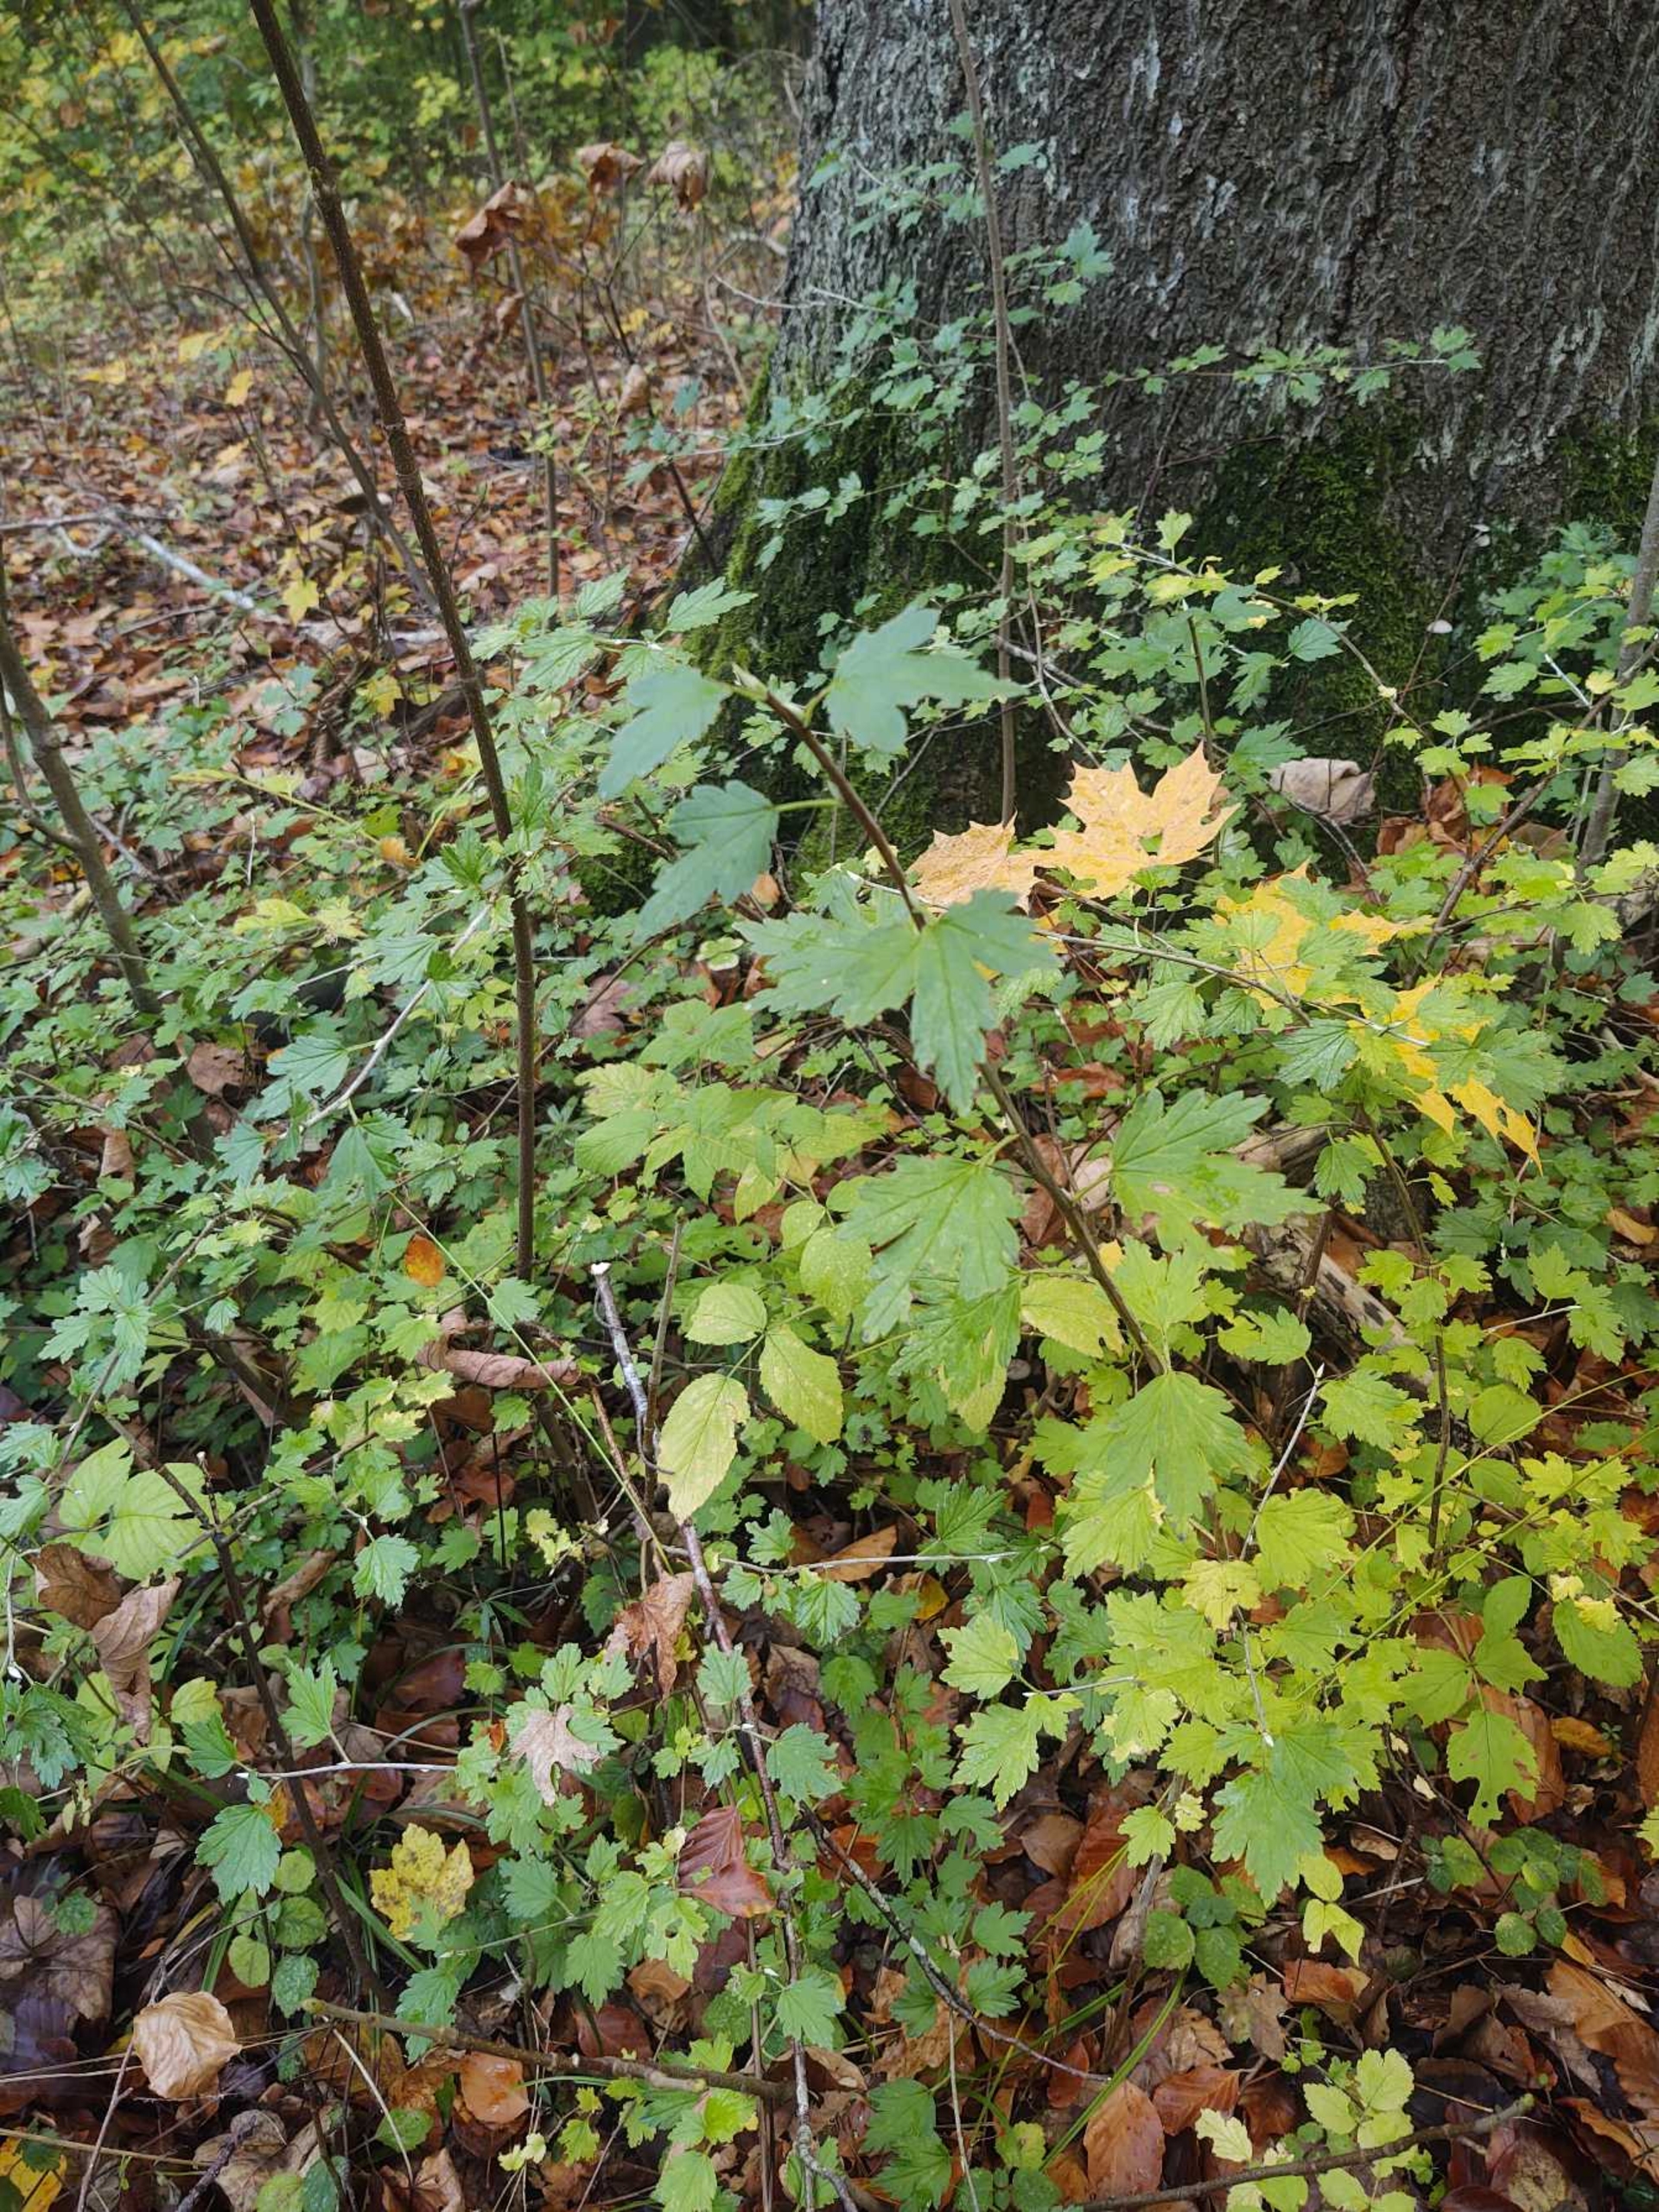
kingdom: Plantae
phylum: Tracheophyta
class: Magnoliopsida
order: Saxifragales
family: Grossulariaceae
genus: Ribes
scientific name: Ribes alpinum
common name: Fjeld-ribs
